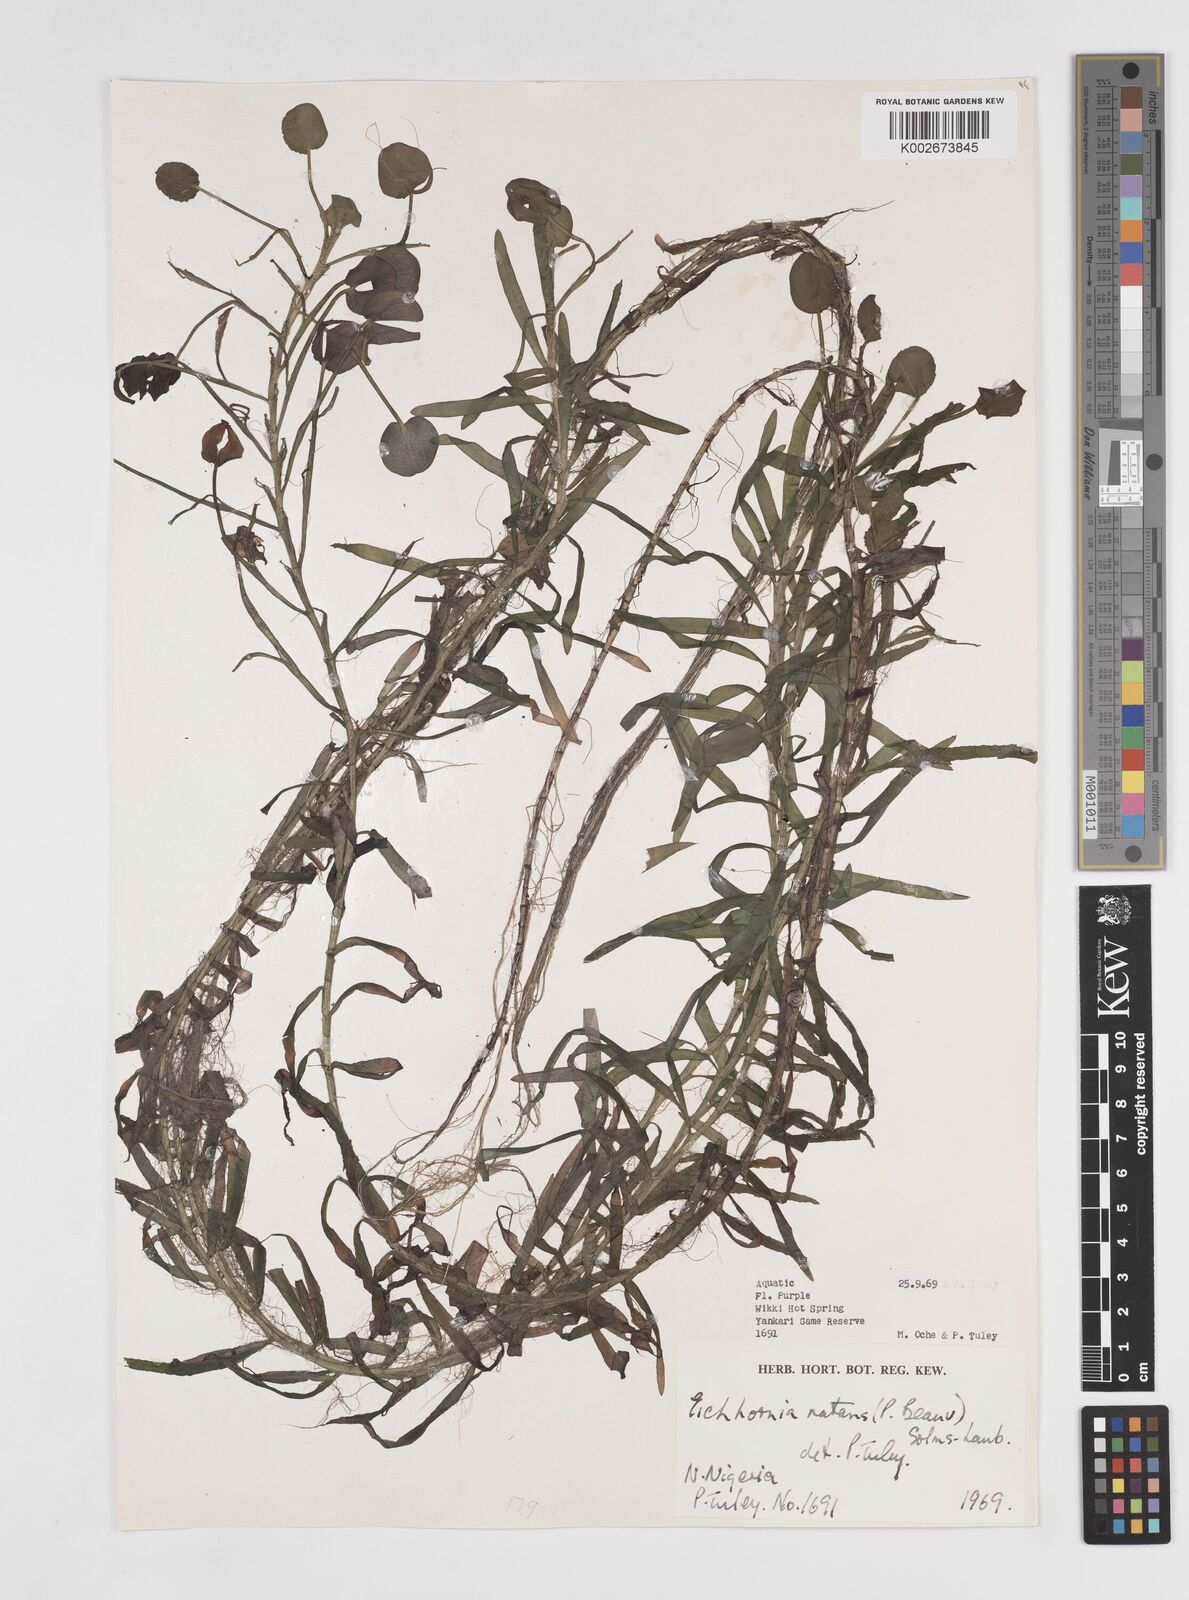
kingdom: Plantae
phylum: Tracheophyta
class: Liliopsida
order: Commelinales
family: Pontederiaceae
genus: Pontederia
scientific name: Pontederia diversifolia
